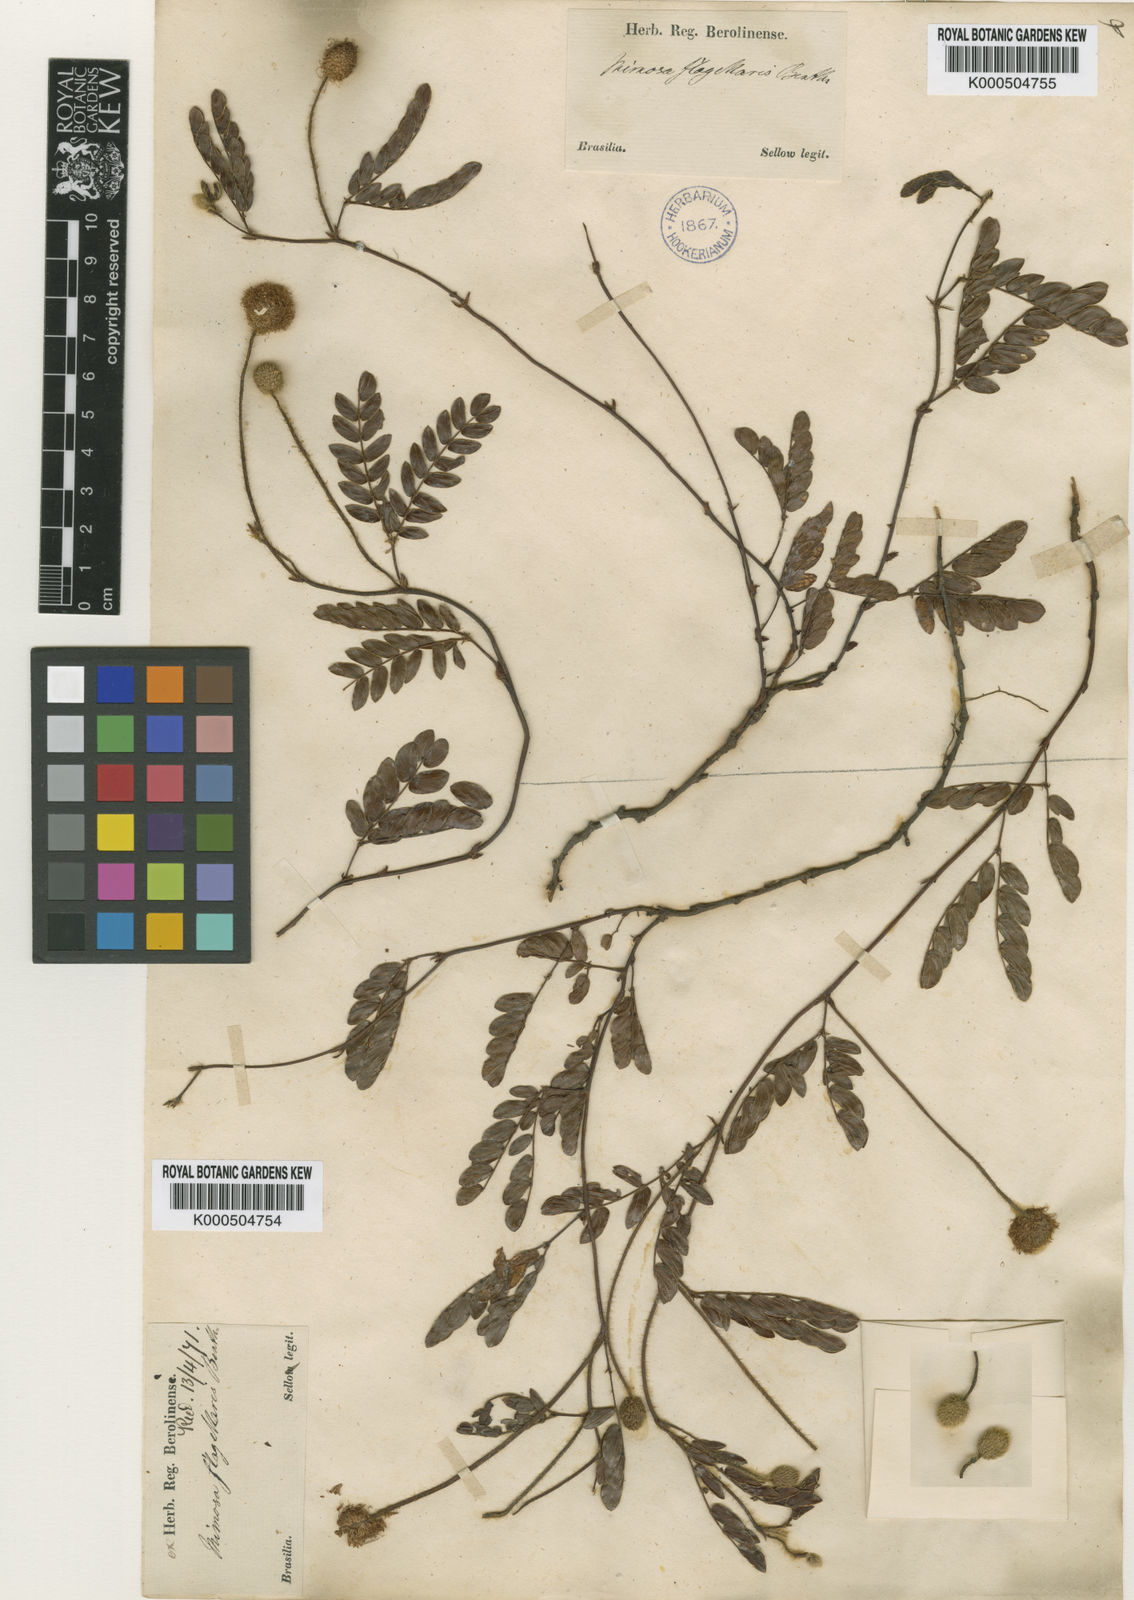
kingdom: Plantae
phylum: Tracheophyta
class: Magnoliopsida
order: Fabales
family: Fabaceae
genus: Mimosa
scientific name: Mimosa flagellaris
